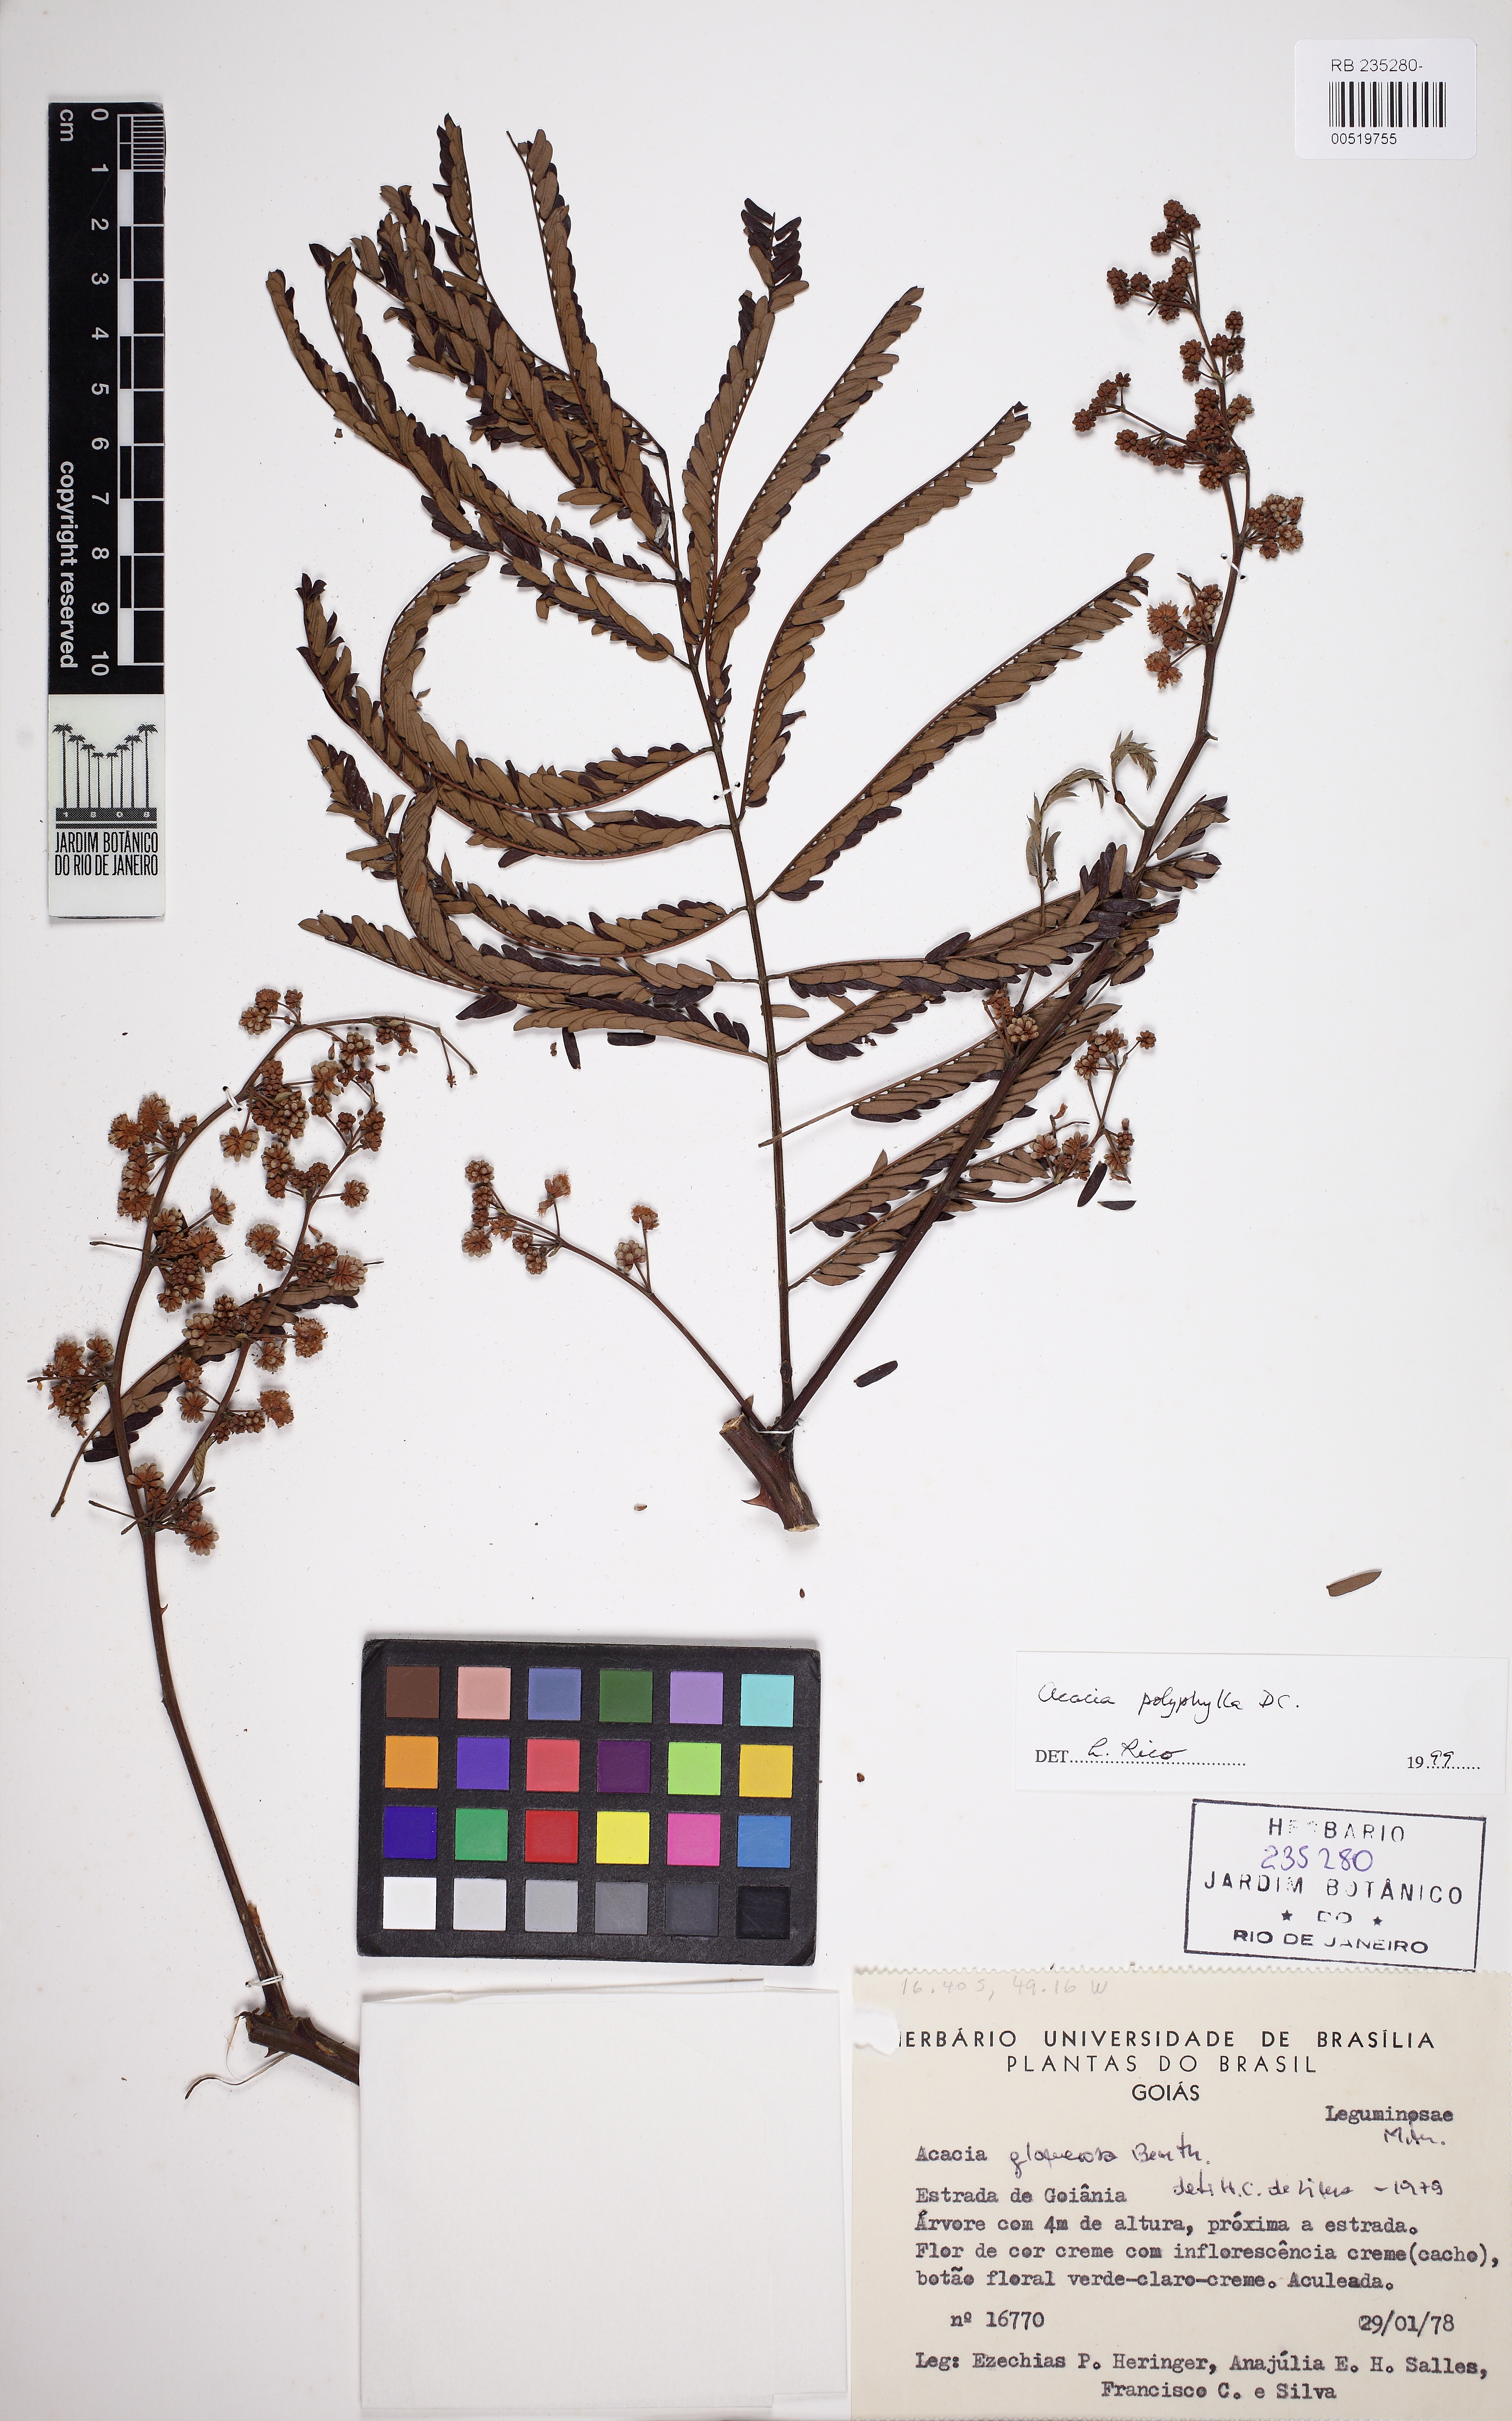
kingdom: Plantae
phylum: Tracheophyta
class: Magnoliopsida
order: Fabales
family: Fabaceae
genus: Senegalia
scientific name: Senegalia polyphylla
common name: White-tamarind
